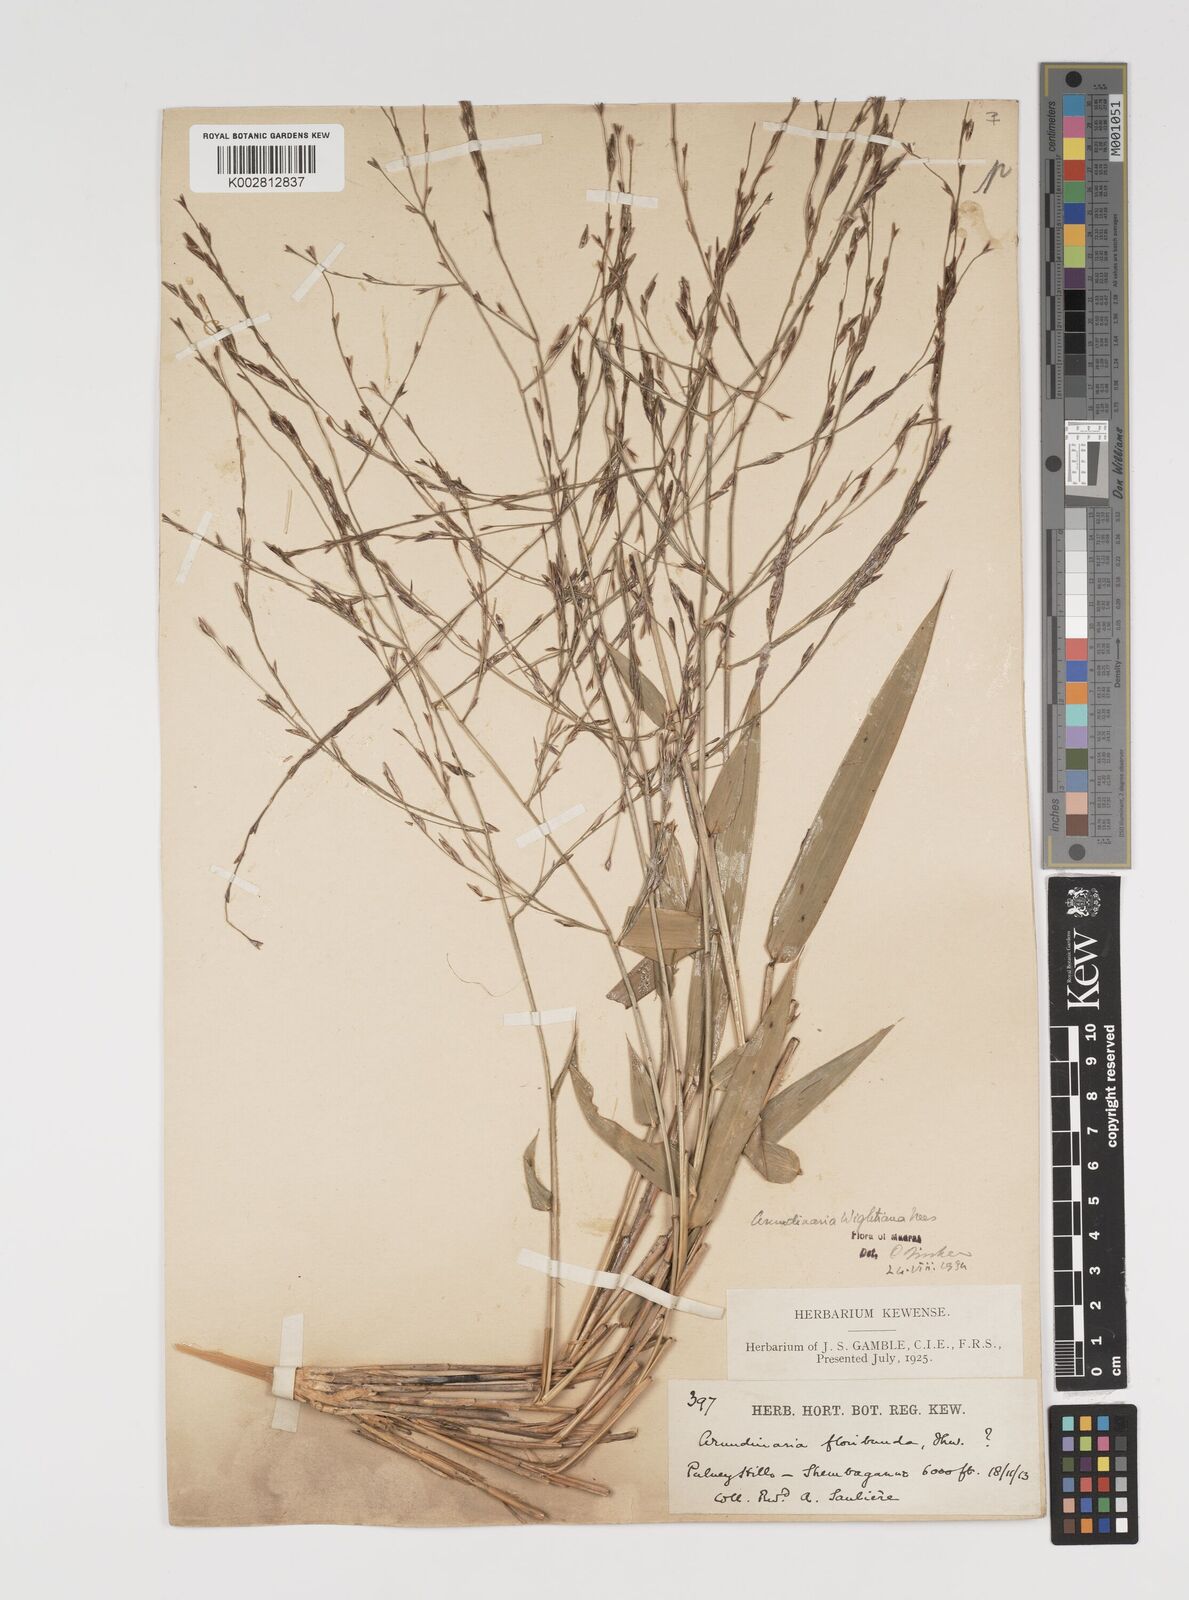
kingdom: Plantae
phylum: Tracheophyta
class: Liliopsida
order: Poales
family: Poaceae
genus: Kuruna
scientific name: Kuruna walkeriana
